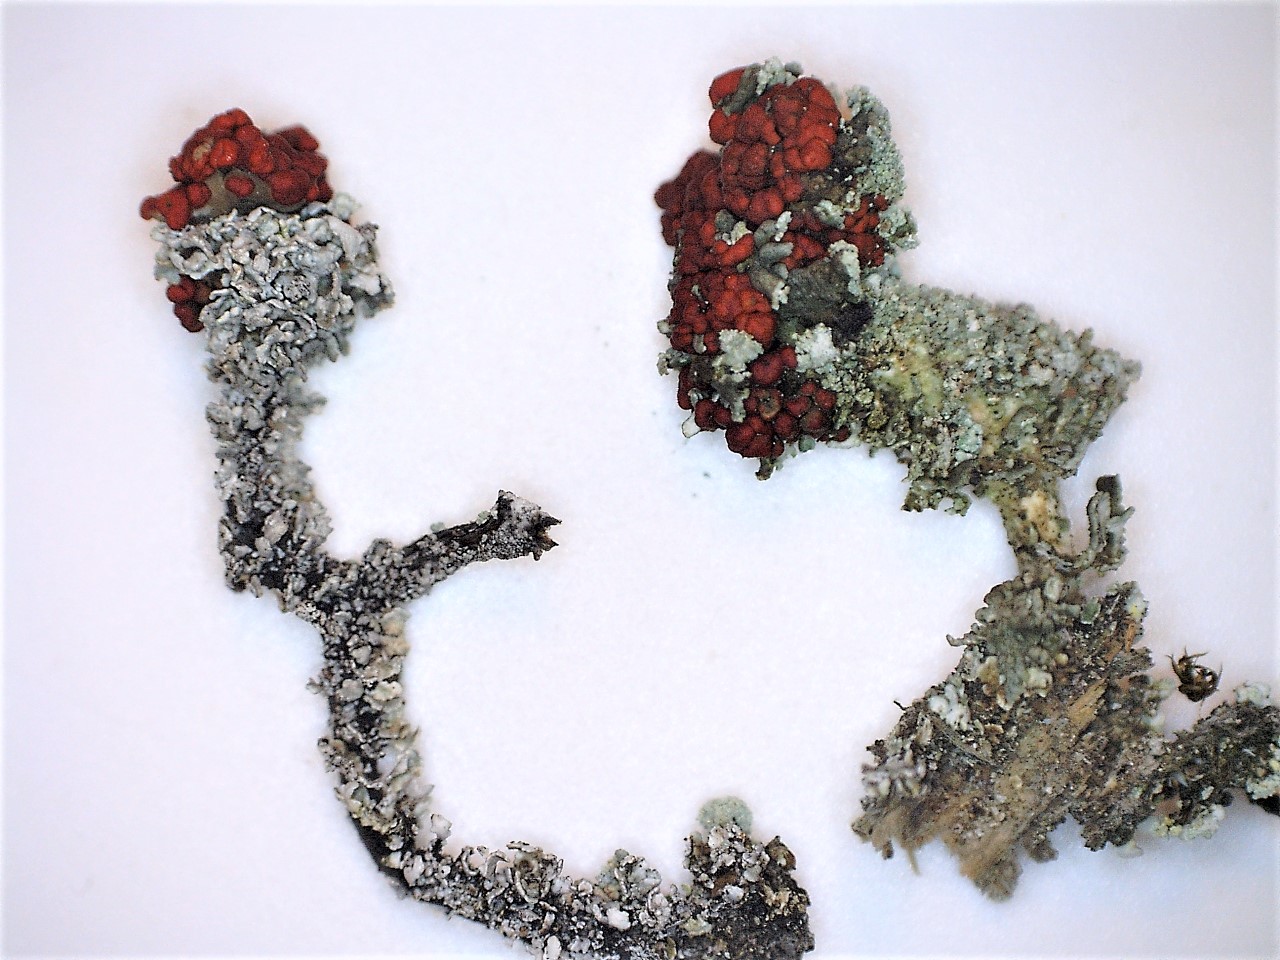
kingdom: Fungi
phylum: Ascomycota
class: Lecanoromycetes
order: Lecanorales
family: Cladoniaceae
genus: Cladonia
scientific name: Cladonia diversa
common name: rød bægerlav
